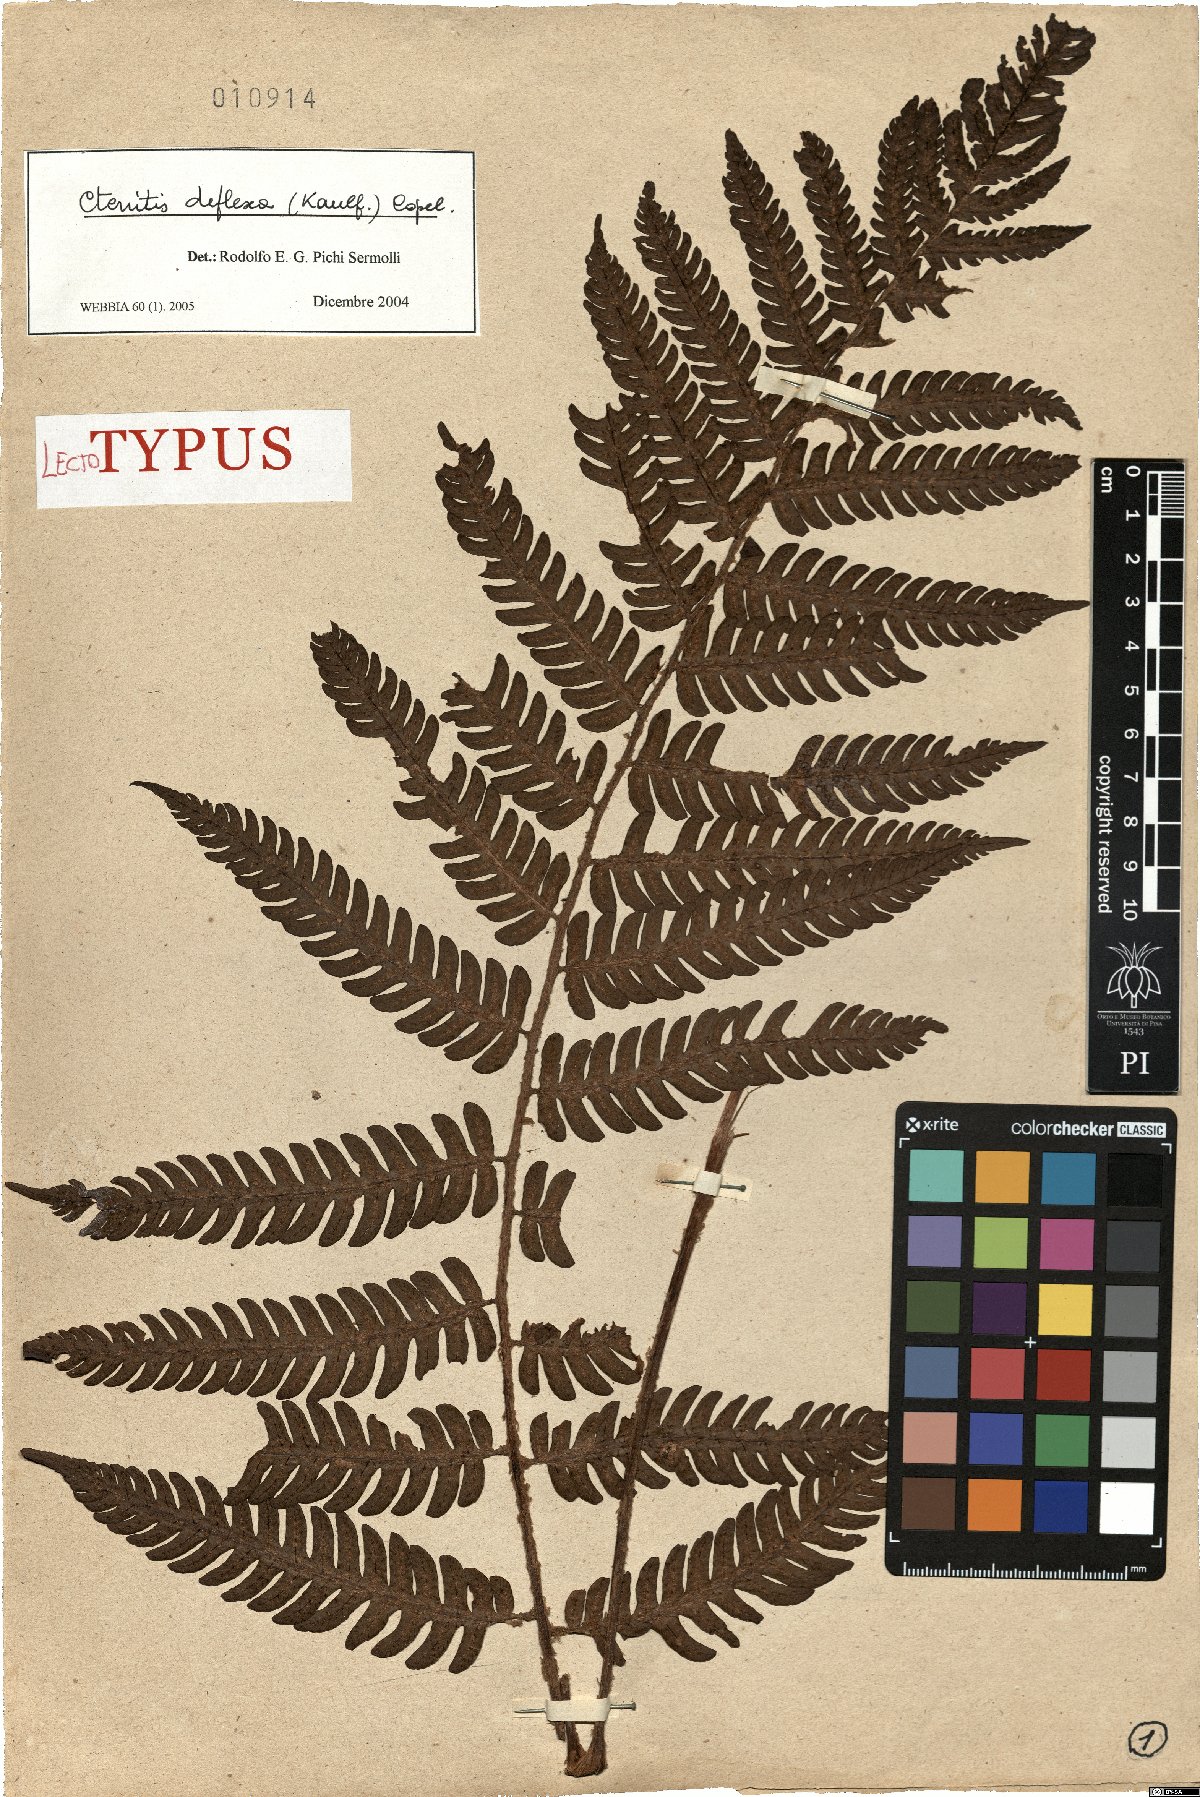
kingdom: Plantae
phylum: Tracheophyta
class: Polypodiopsida
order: Polypodiales
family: Dryopteridaceae
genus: Ctenitis
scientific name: Ctenitis deflexa
